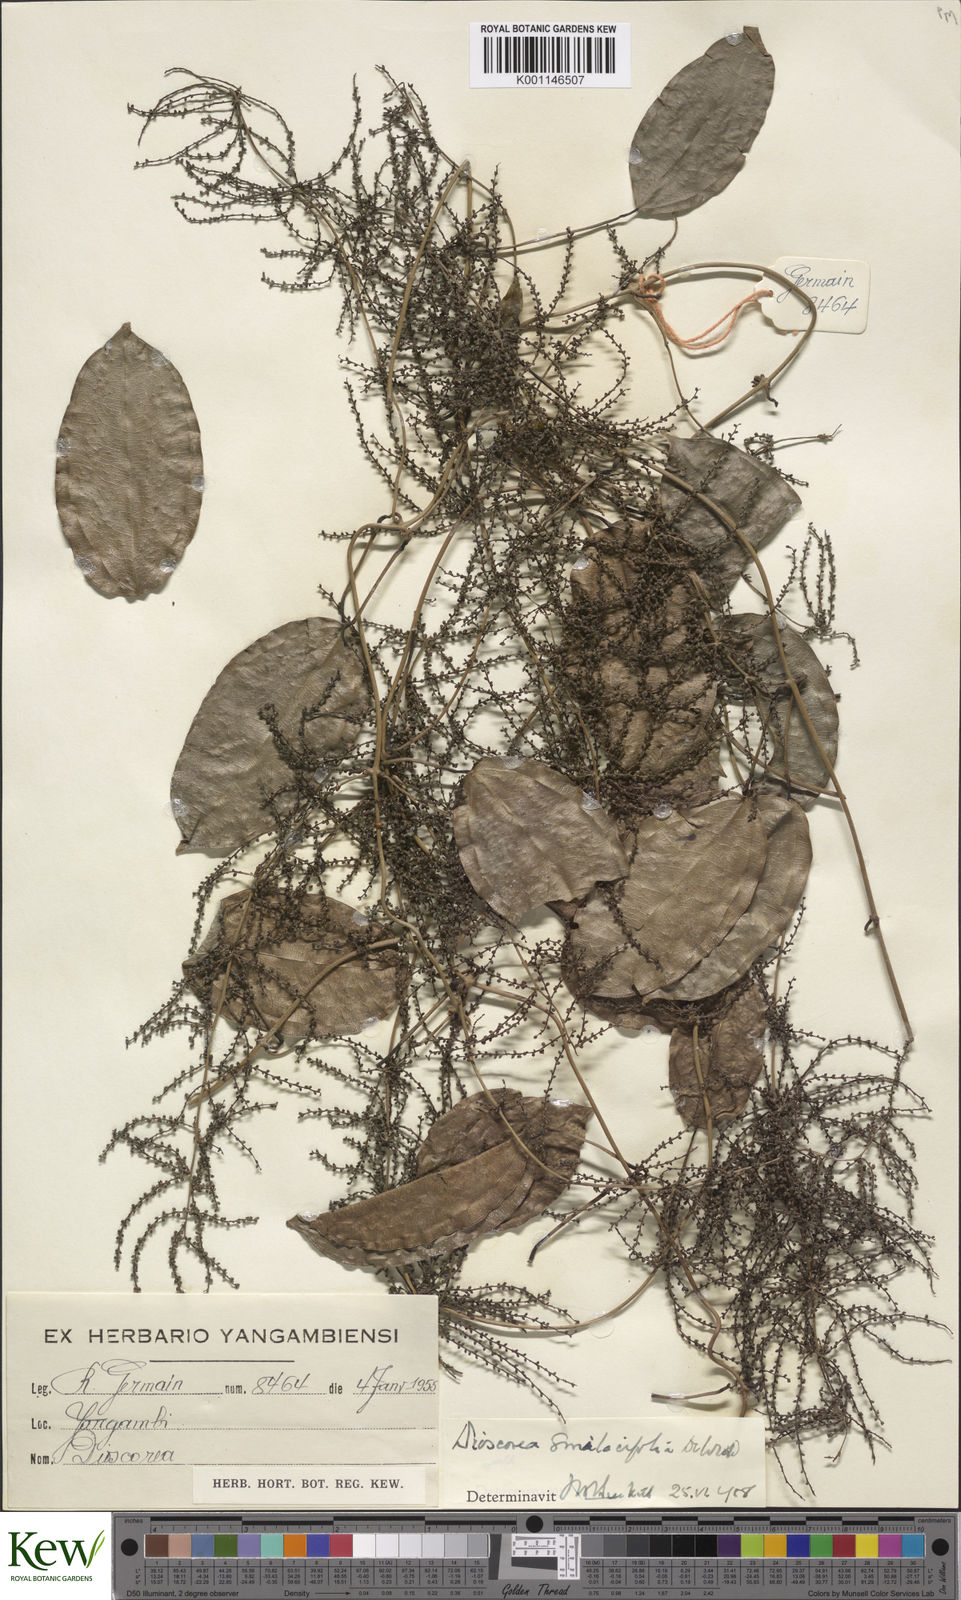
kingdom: Plantae
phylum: Tracheophyta
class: Liliopsida
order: Dioscoreales
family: Dioscoreaceae
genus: Dioscorea
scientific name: Dioscorea smilacifolia
